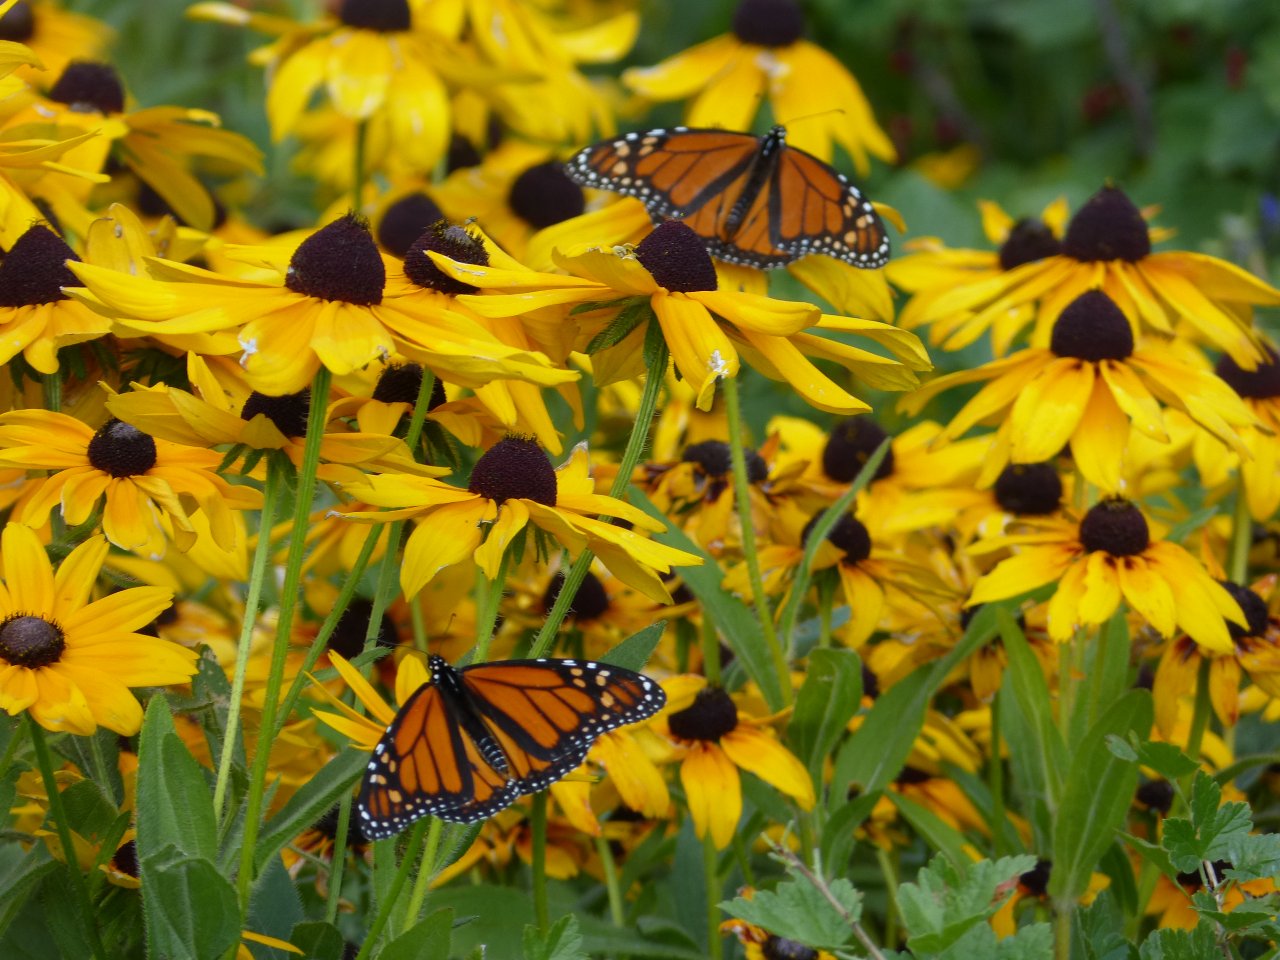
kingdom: Animalia
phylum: Arthropoda
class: Insecta
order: Lepidoptera
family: Nymphalidae
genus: Danaus
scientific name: Danaus plexippus
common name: Monarch
